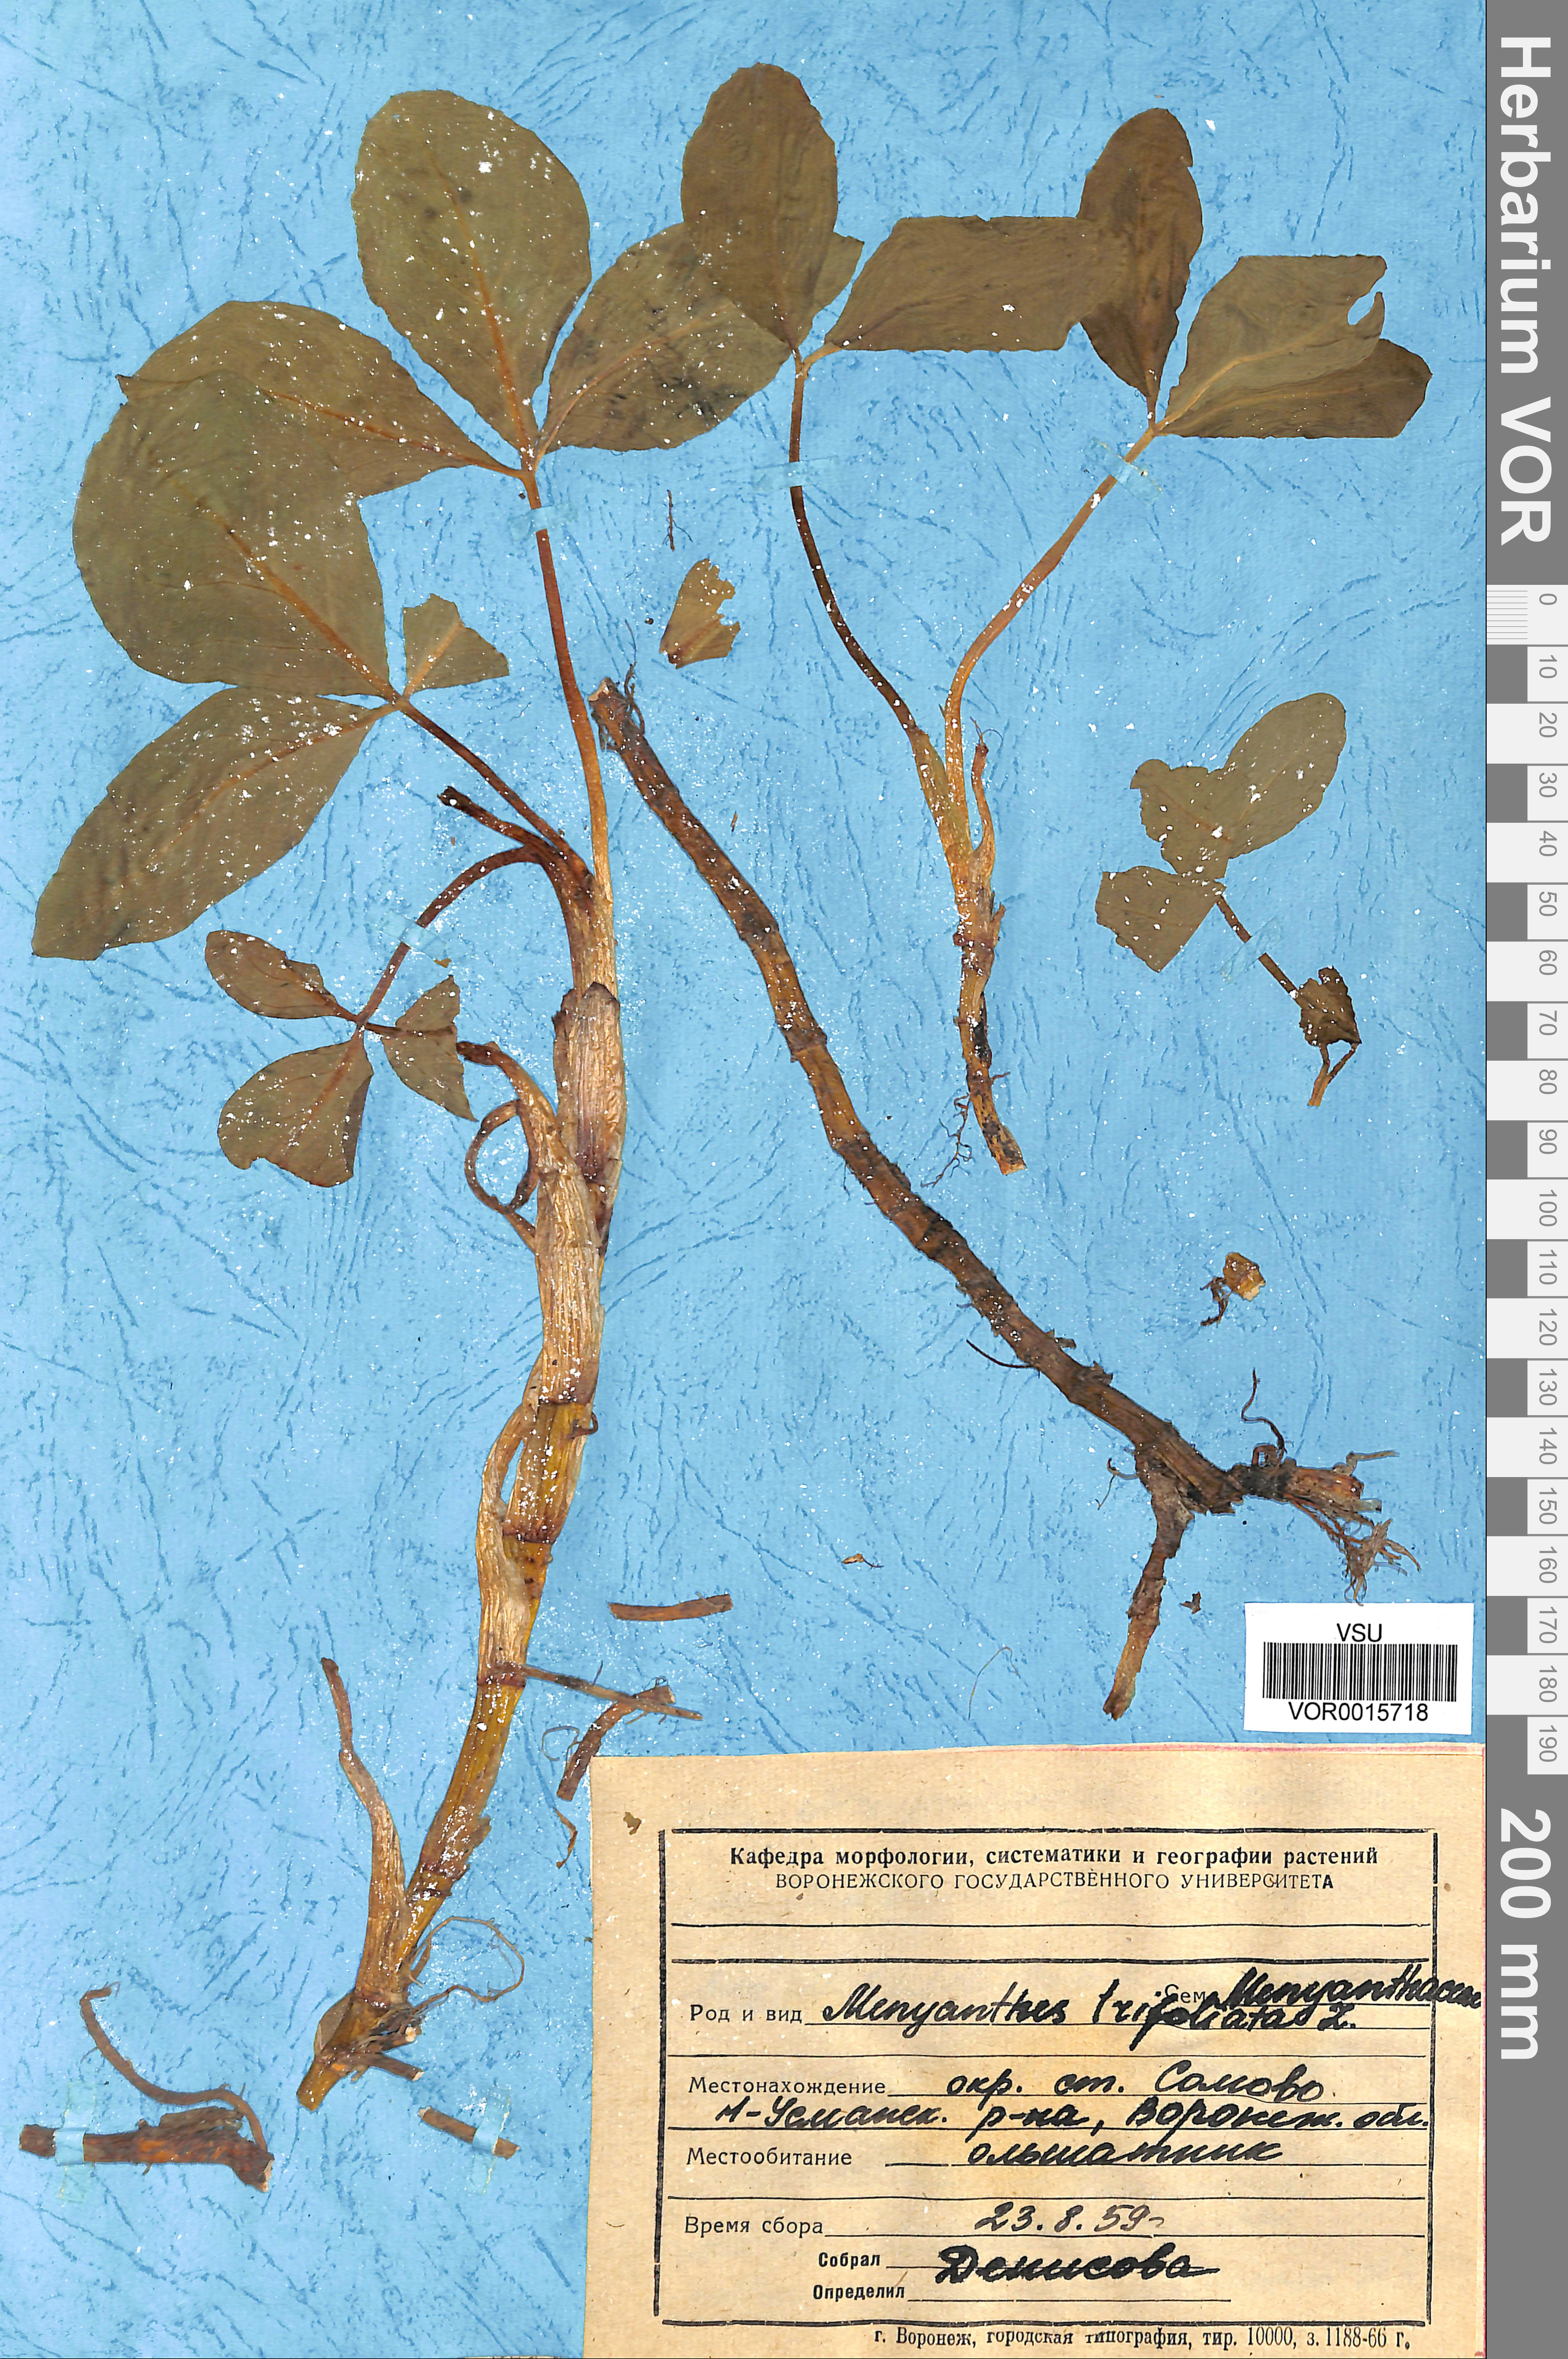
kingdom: Plantae
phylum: Tracheophyta
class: Magnoliopsida
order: Asterales
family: Menyanthaceae
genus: Menyanthes
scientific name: Menyanthes trifoliata
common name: Bogbean
